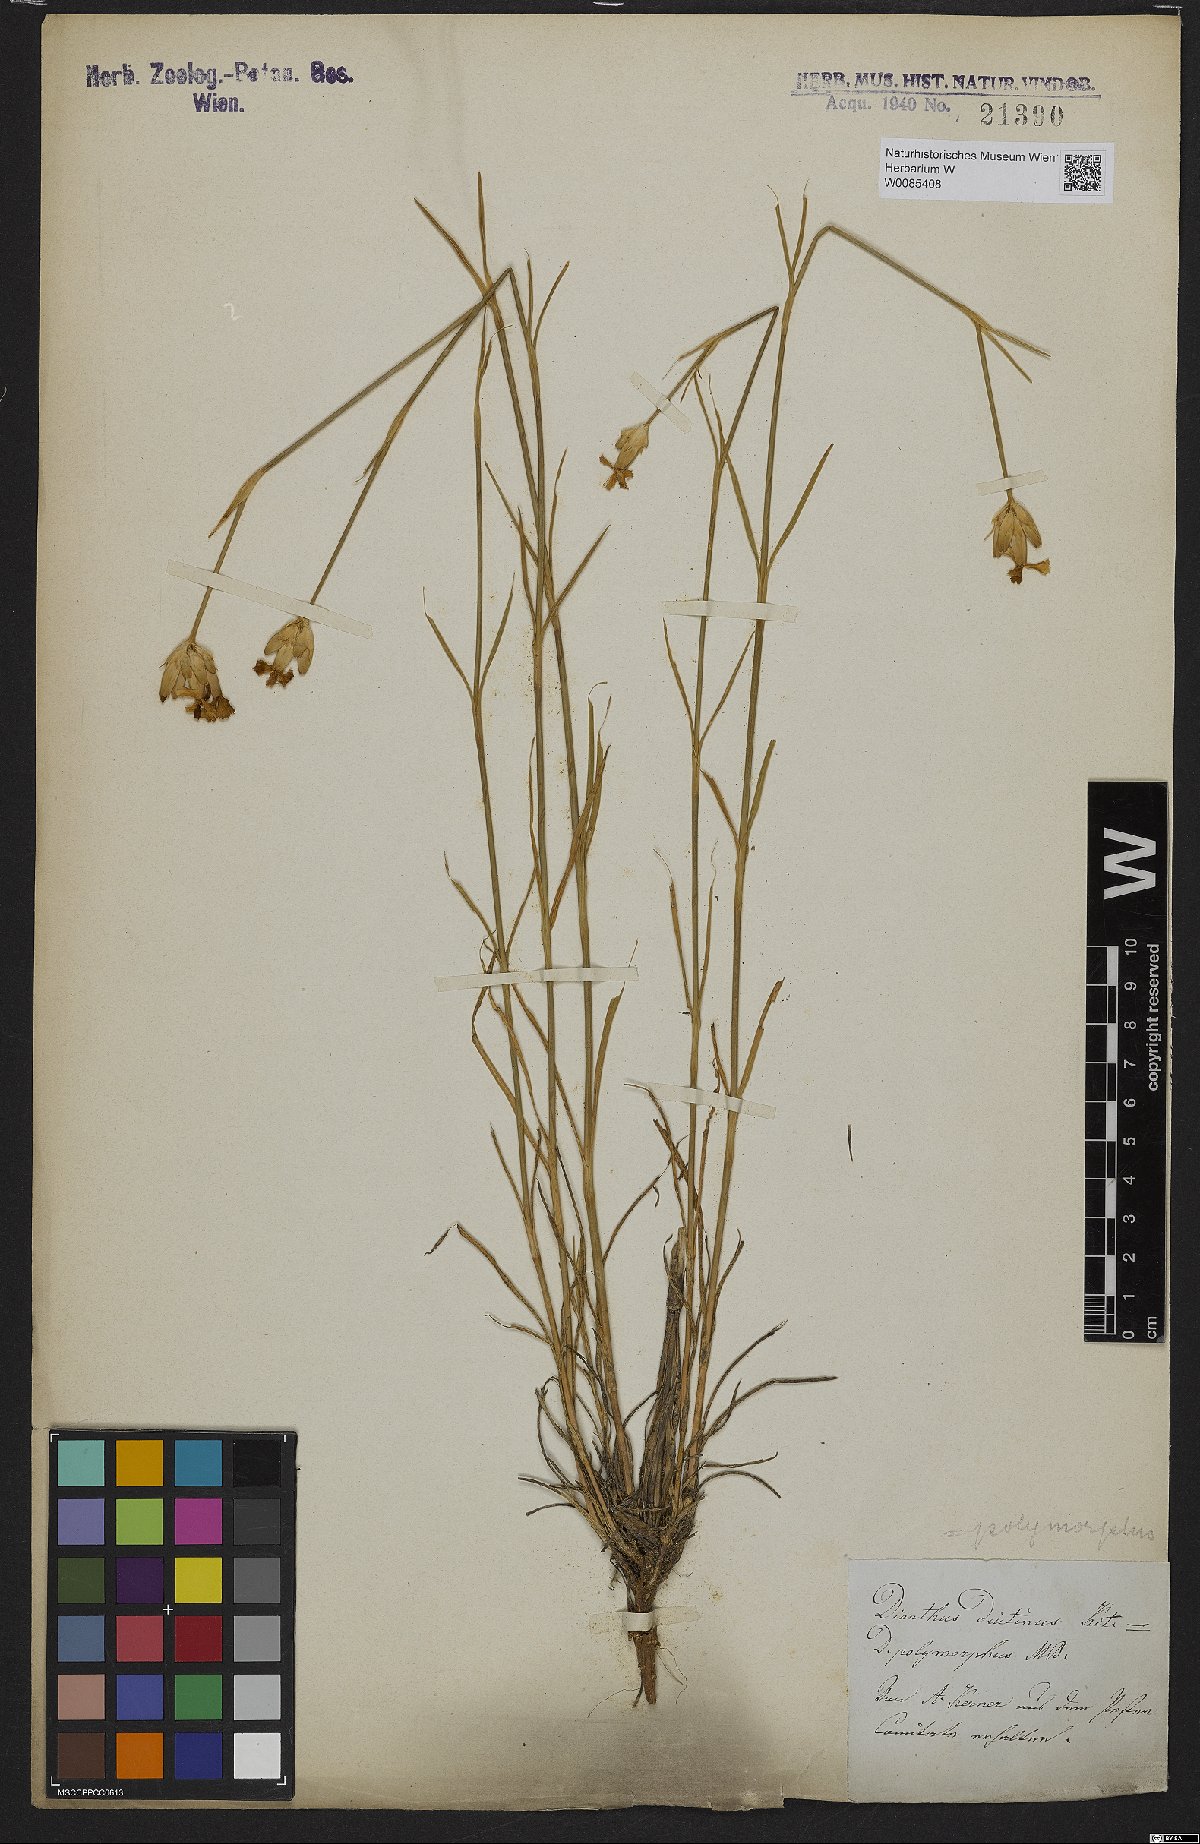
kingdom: Plantae
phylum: Tracheophyta
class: Magnoliopsida
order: Caryophyllales
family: Caryophyllaceae
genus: Dianthus
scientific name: Dianthus polymorphus
